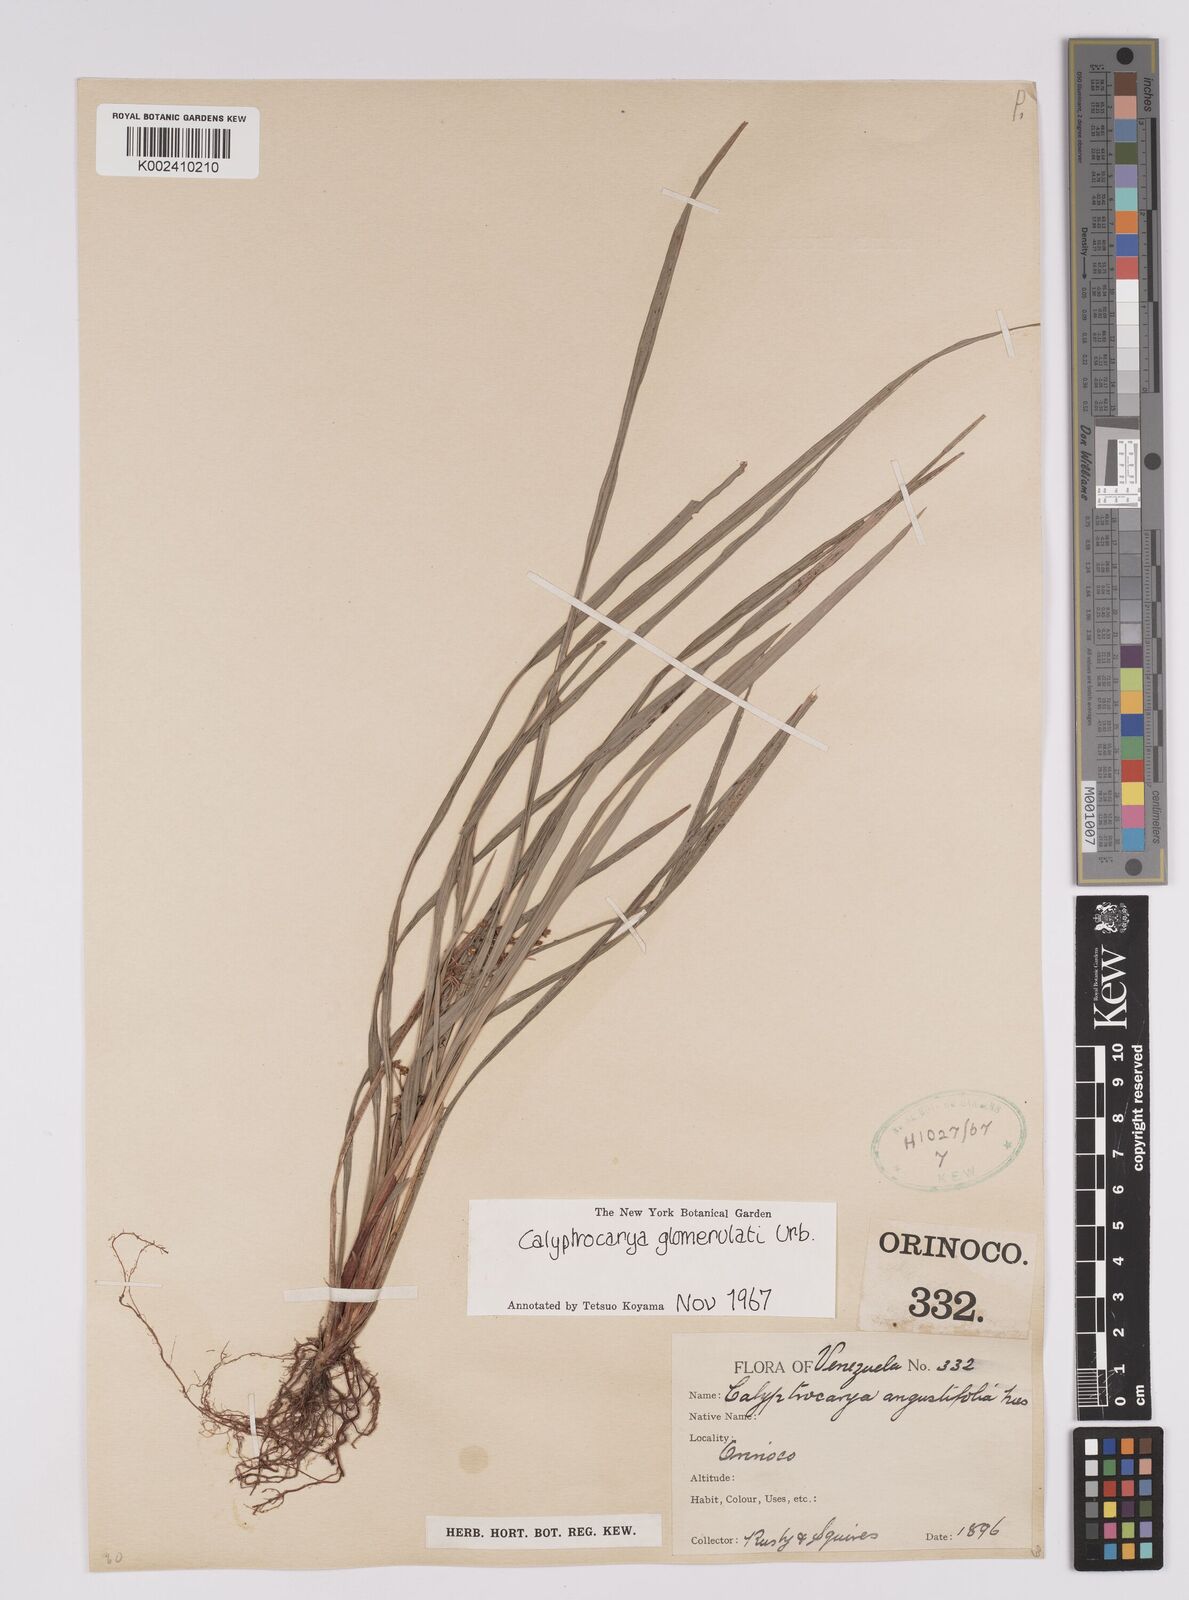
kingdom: Plantae
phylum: Tracheophyta
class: Liliopsida
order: Poales
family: Cyperaceae
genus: Calyptrocarya
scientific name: Calyptrocarya glomerulata
